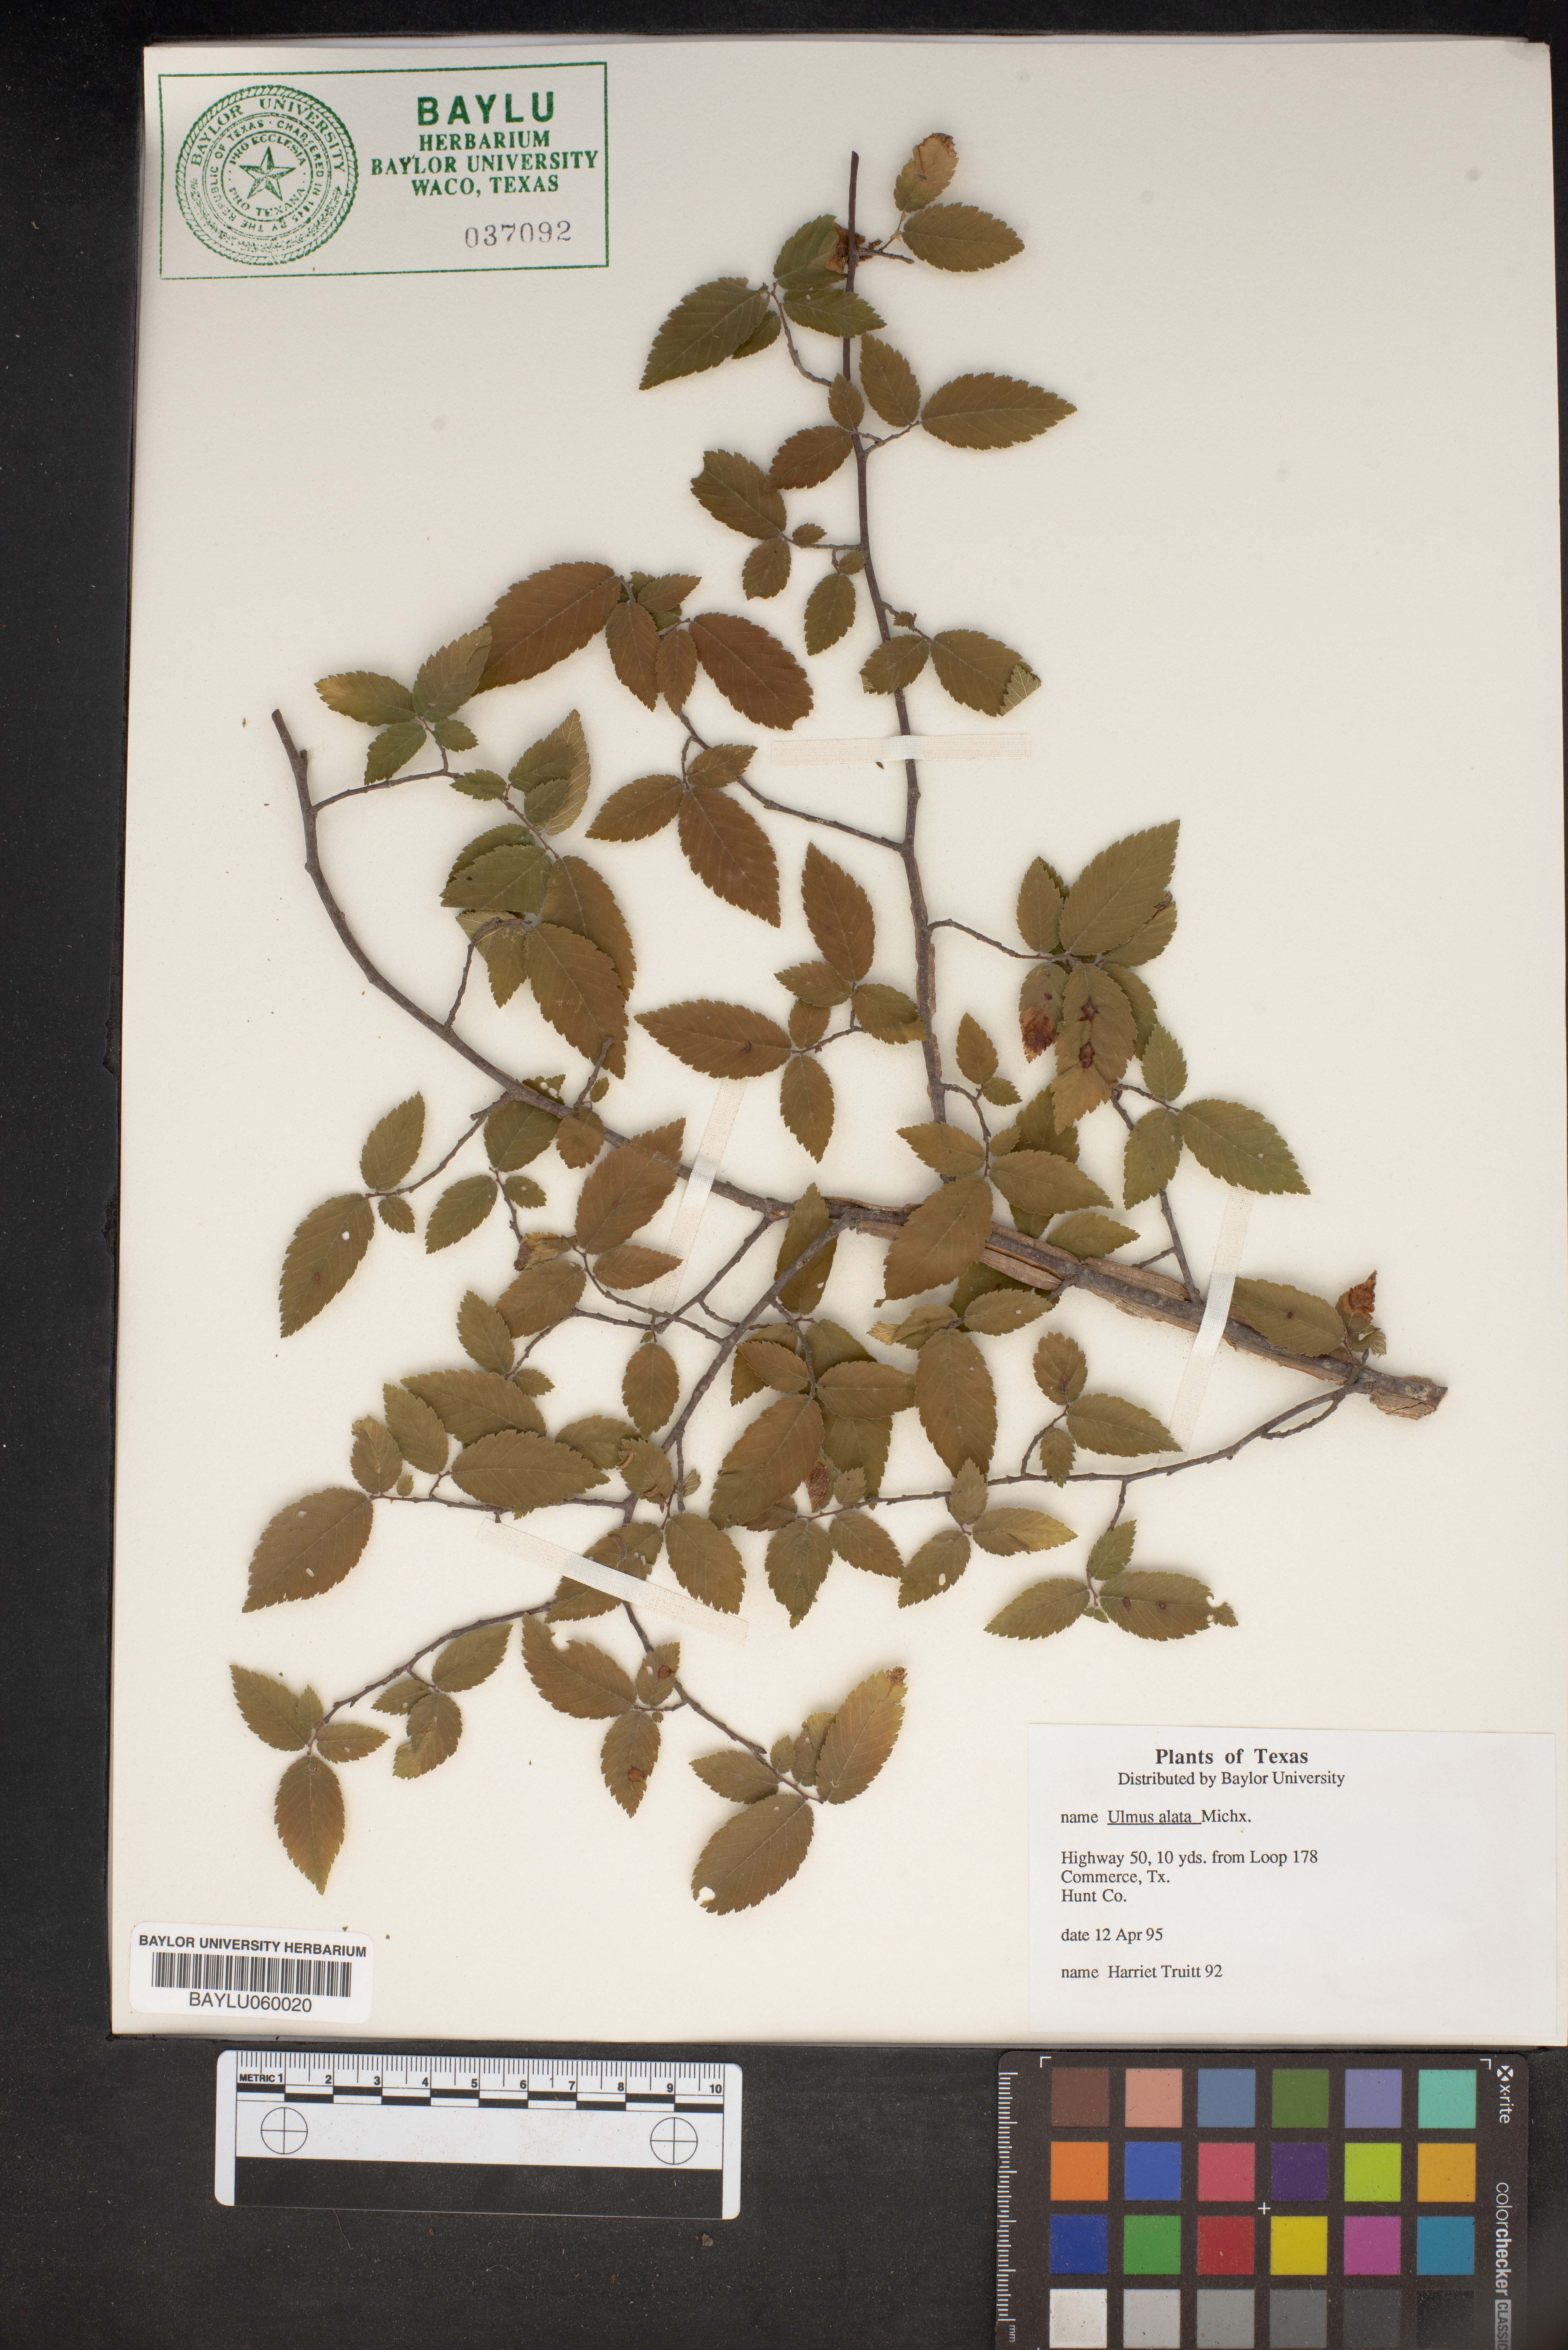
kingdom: Plantae
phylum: Tracheophyta
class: Magnoliopsida
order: Rosales
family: Ulmaceae
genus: Ulmus
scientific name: Ulmus alata
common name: Winged elm
